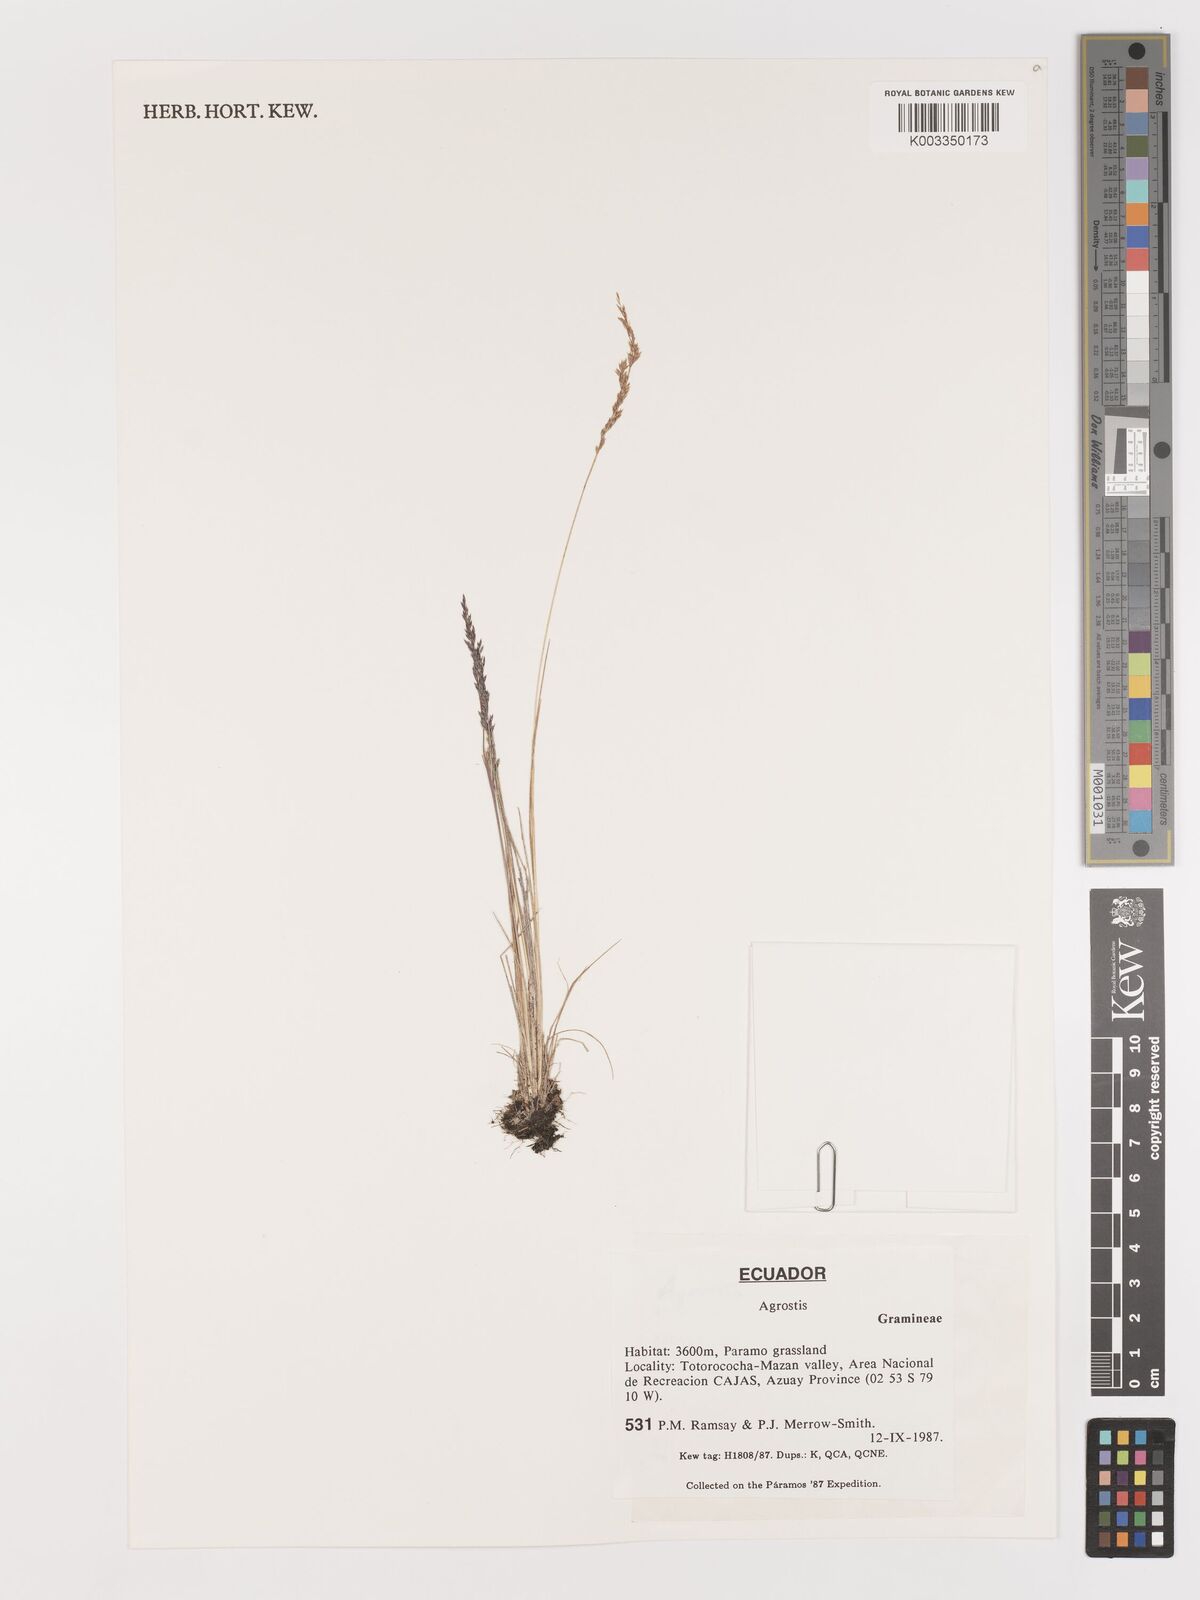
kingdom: Plantae
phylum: Tracheophyta
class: Liliopsida
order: Poales
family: Poaceae
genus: Agrostis
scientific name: Agrostis
